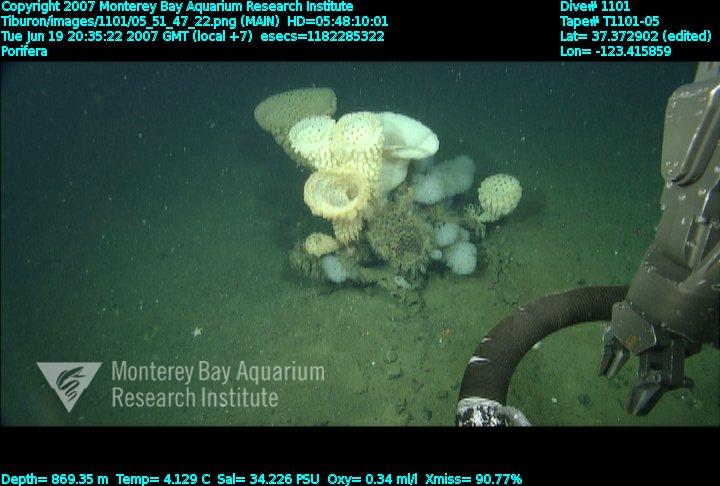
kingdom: Animalia
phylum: Porifera
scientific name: Porifera
